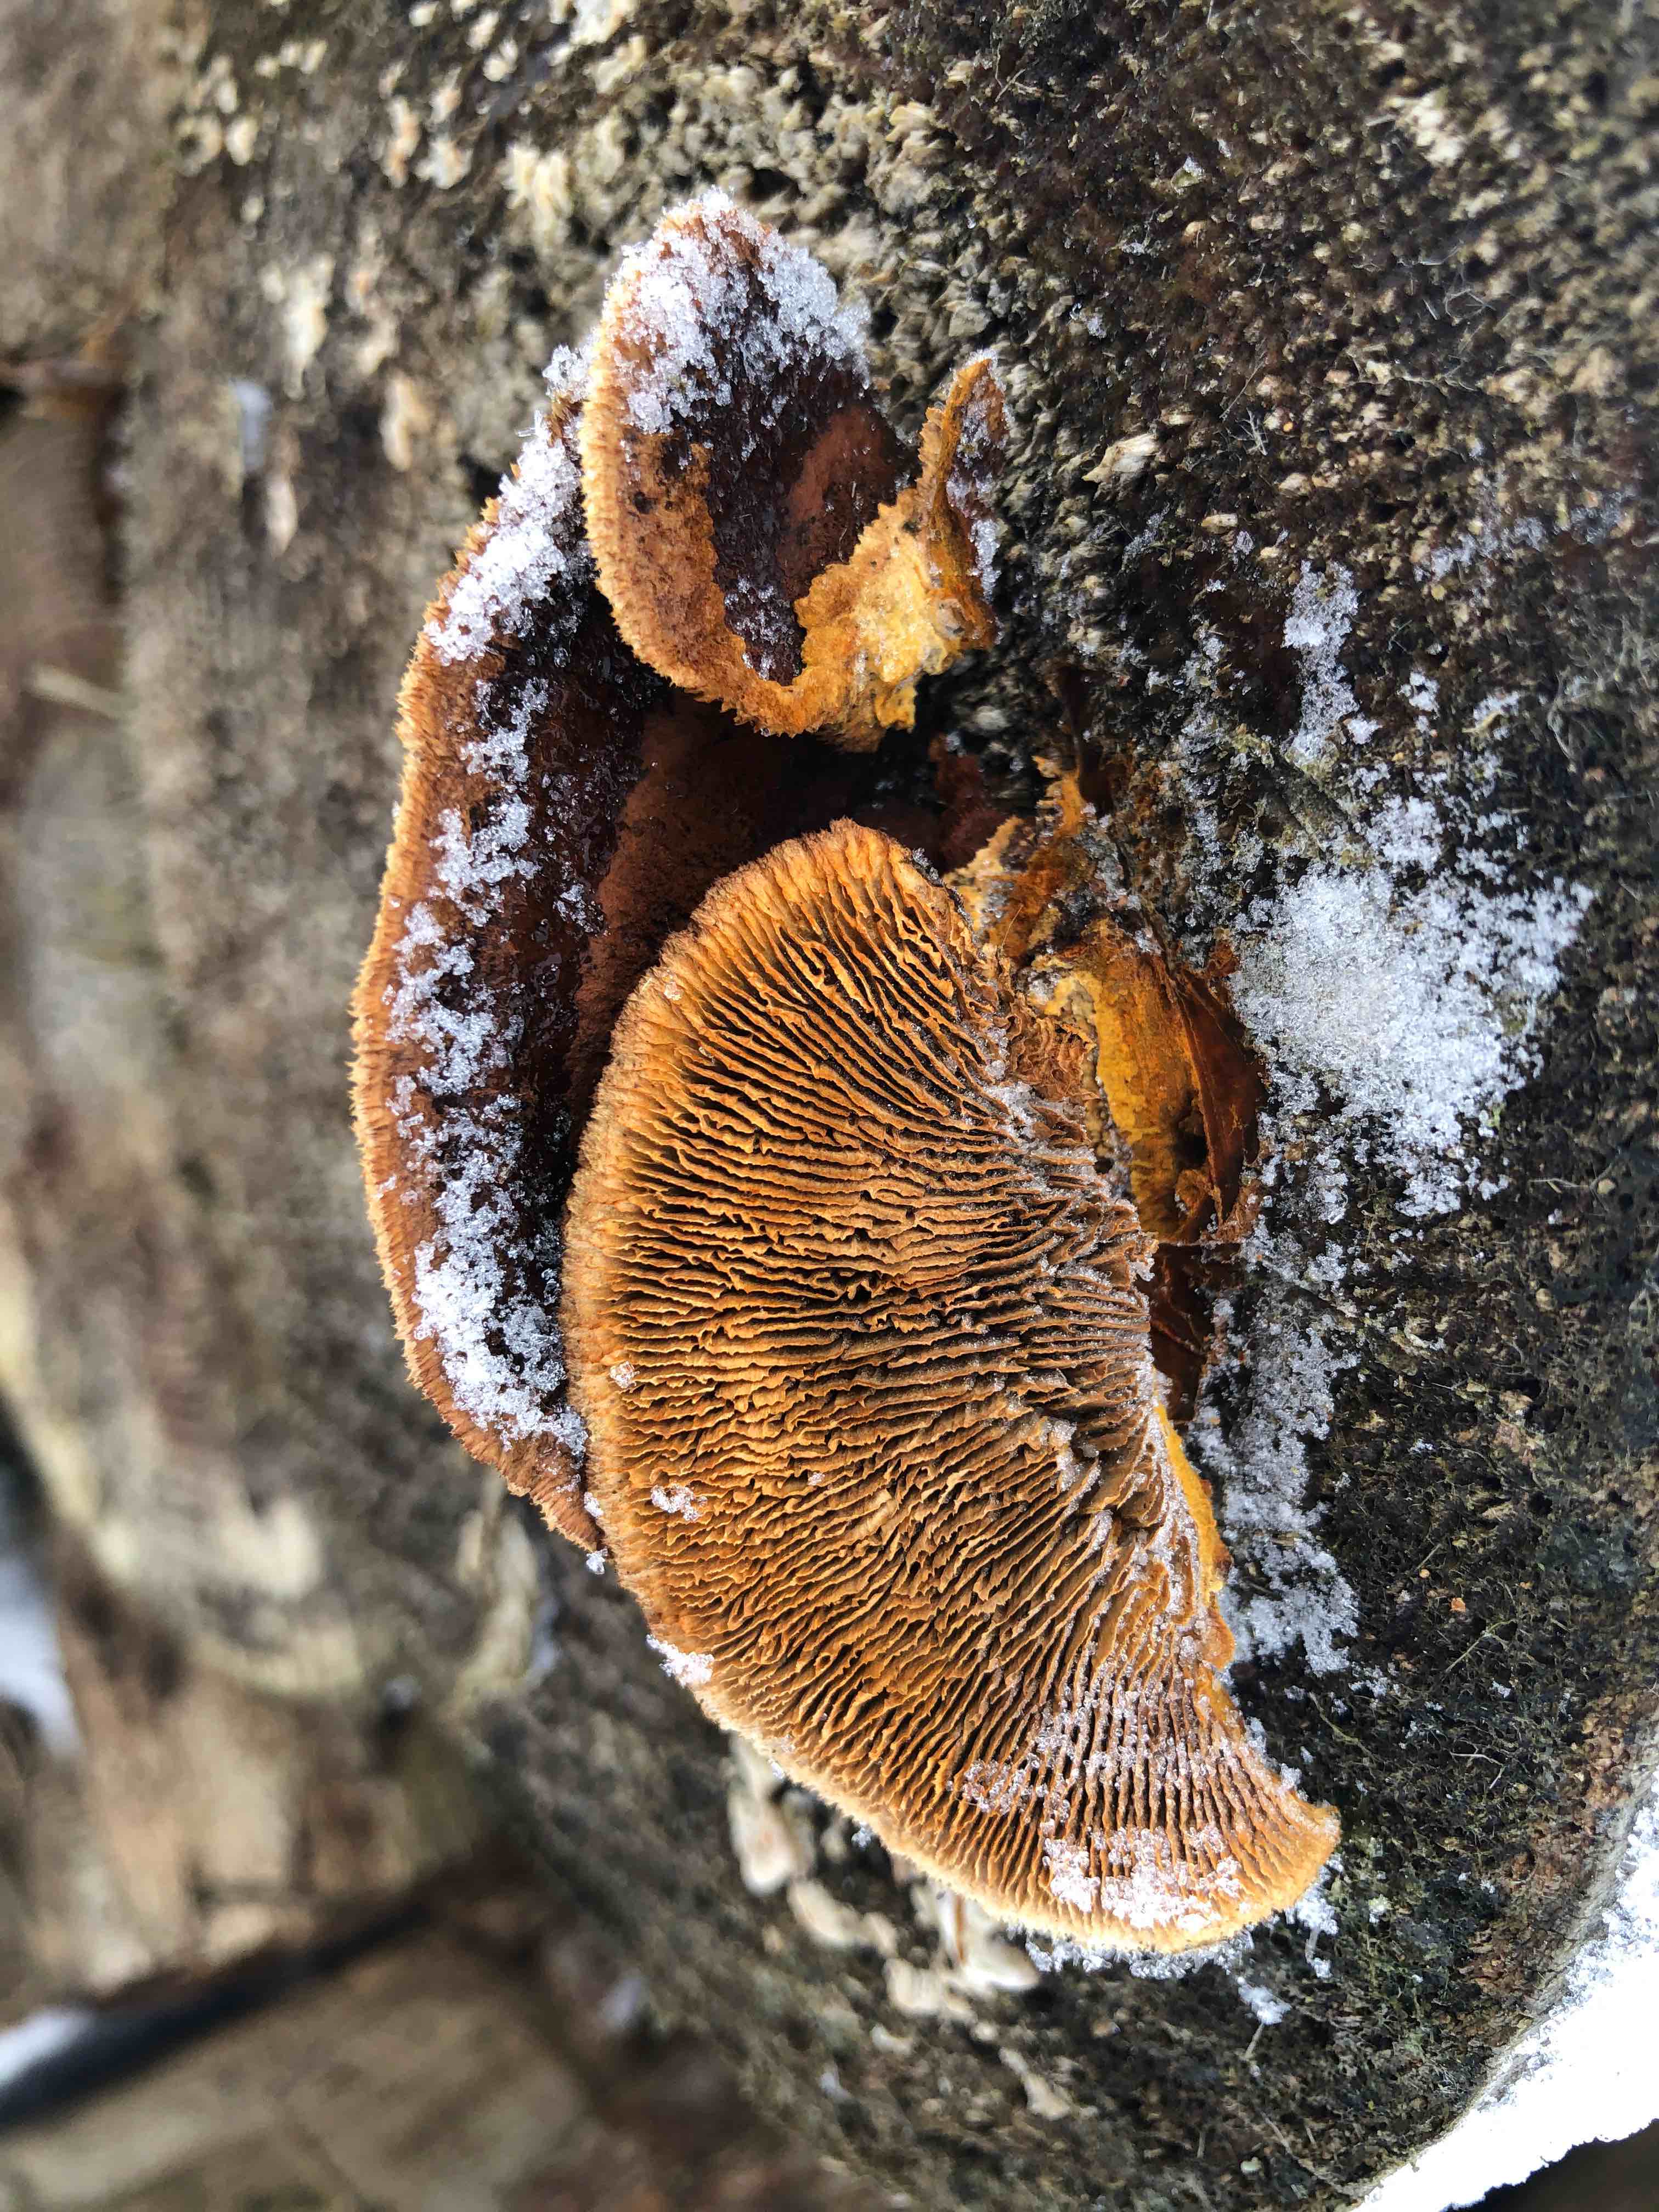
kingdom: Fungi
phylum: Basidiomycota
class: Agaricomycetes
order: Gloeophyllales
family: Gloeophyllaceae
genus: Gloeophyllum
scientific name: Gloeophyllum sepiarium
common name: fyrre-korkhat
